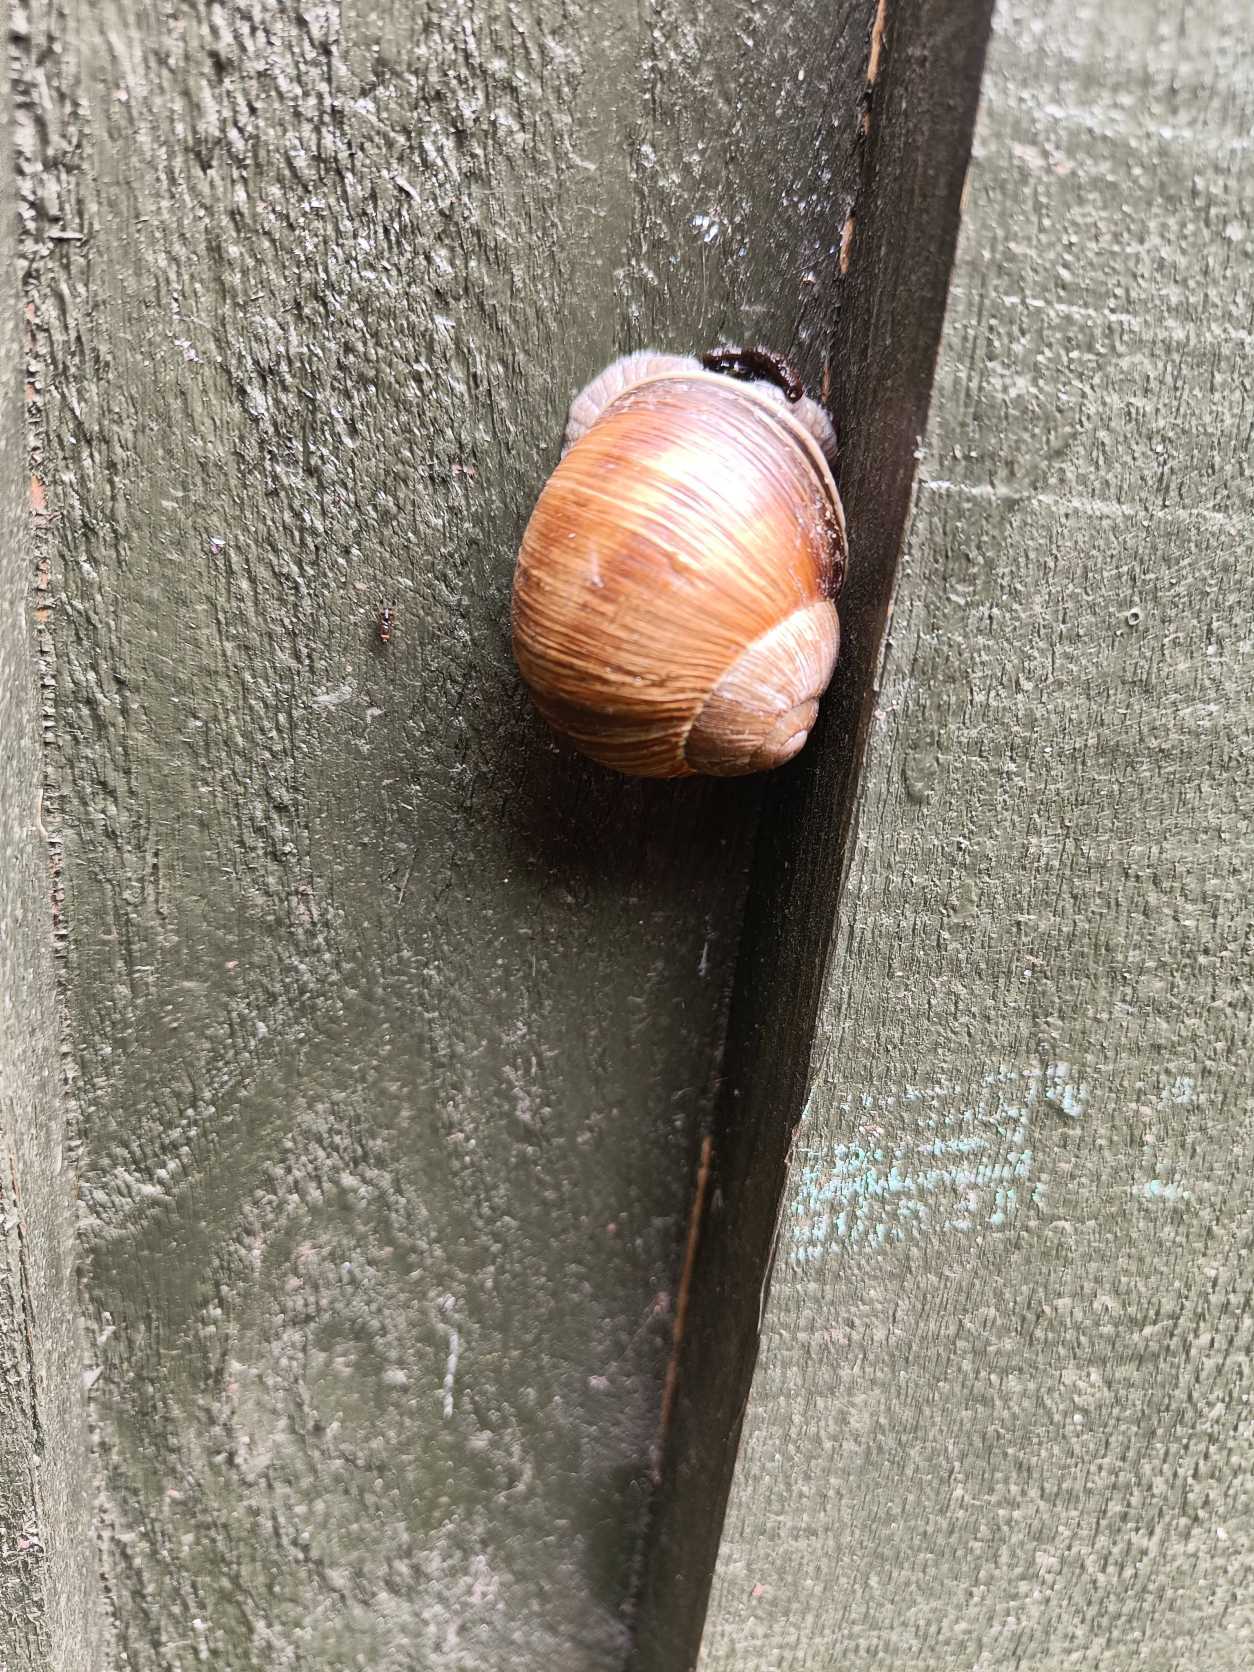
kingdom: Animalia
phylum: Mollusca
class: Gastropoda
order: Stylommatophora
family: Helicidae
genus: Helix
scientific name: Helix pomatia
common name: Vinbjergsnegl
